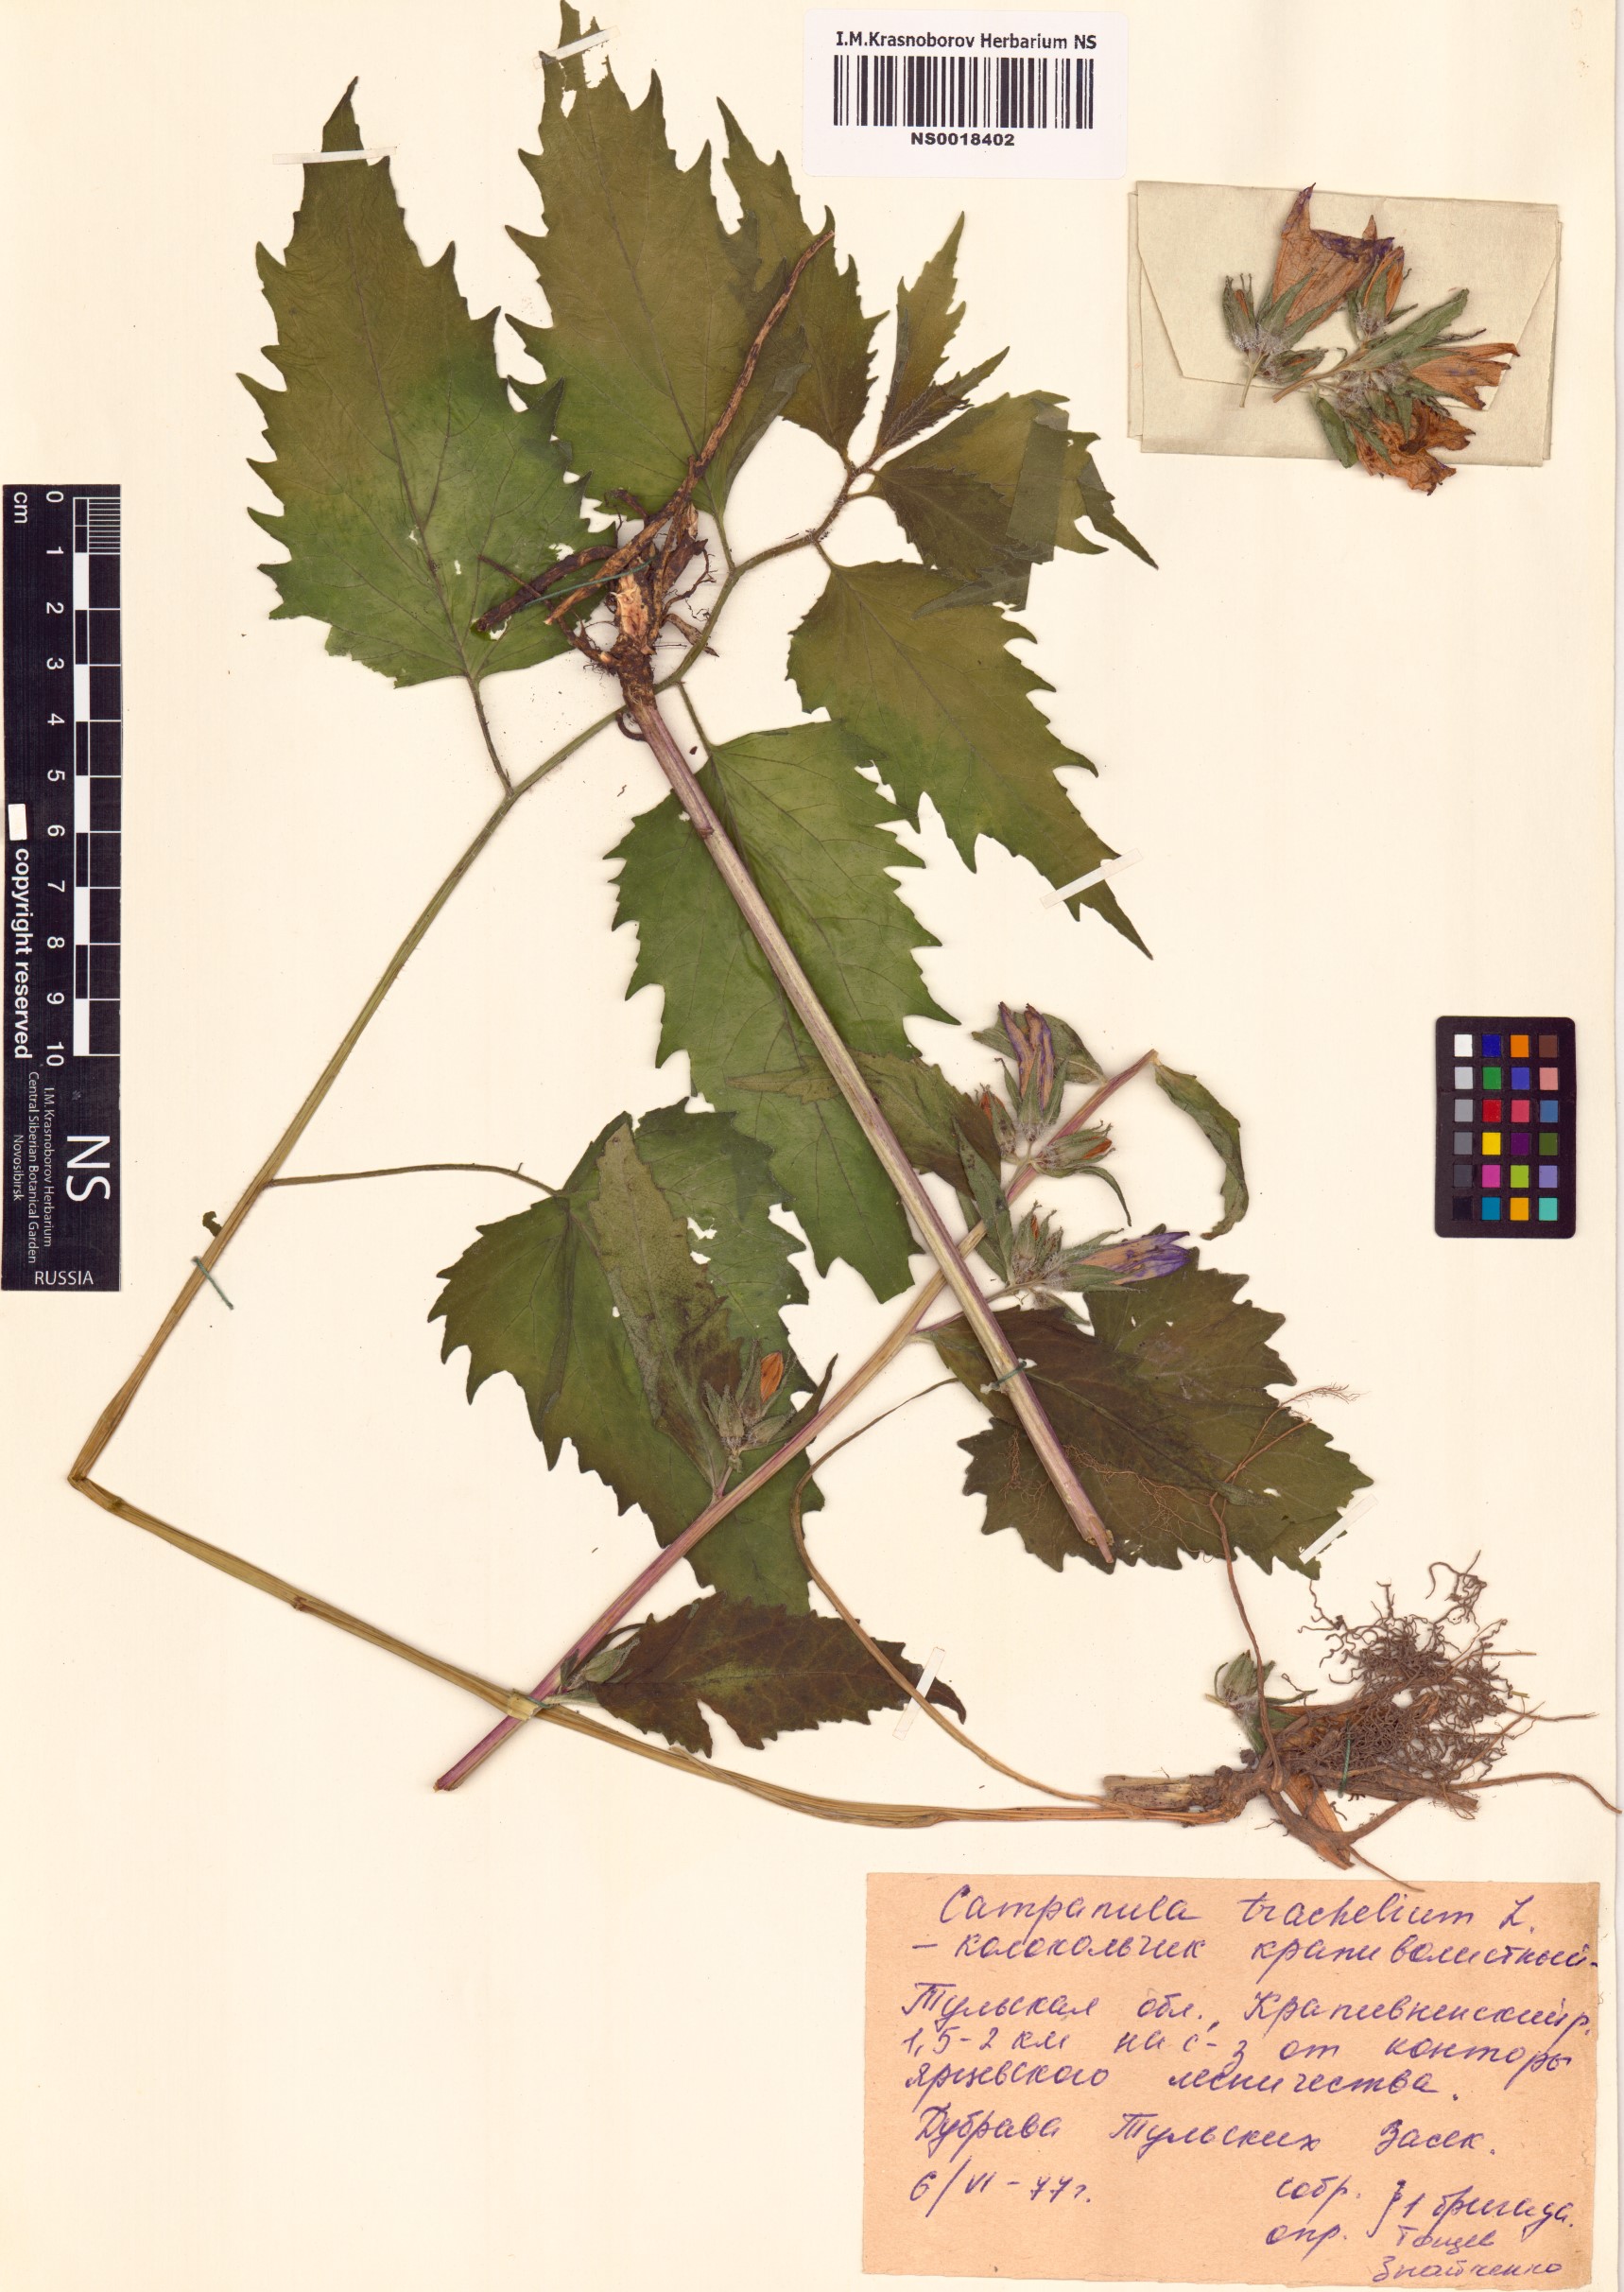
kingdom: Plantae
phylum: Tracheophyta
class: Magnoliopsida
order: Asterales
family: Campanulaceae
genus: Campanula
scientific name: Campanula trachelium
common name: Nettle-leaved bellflower
